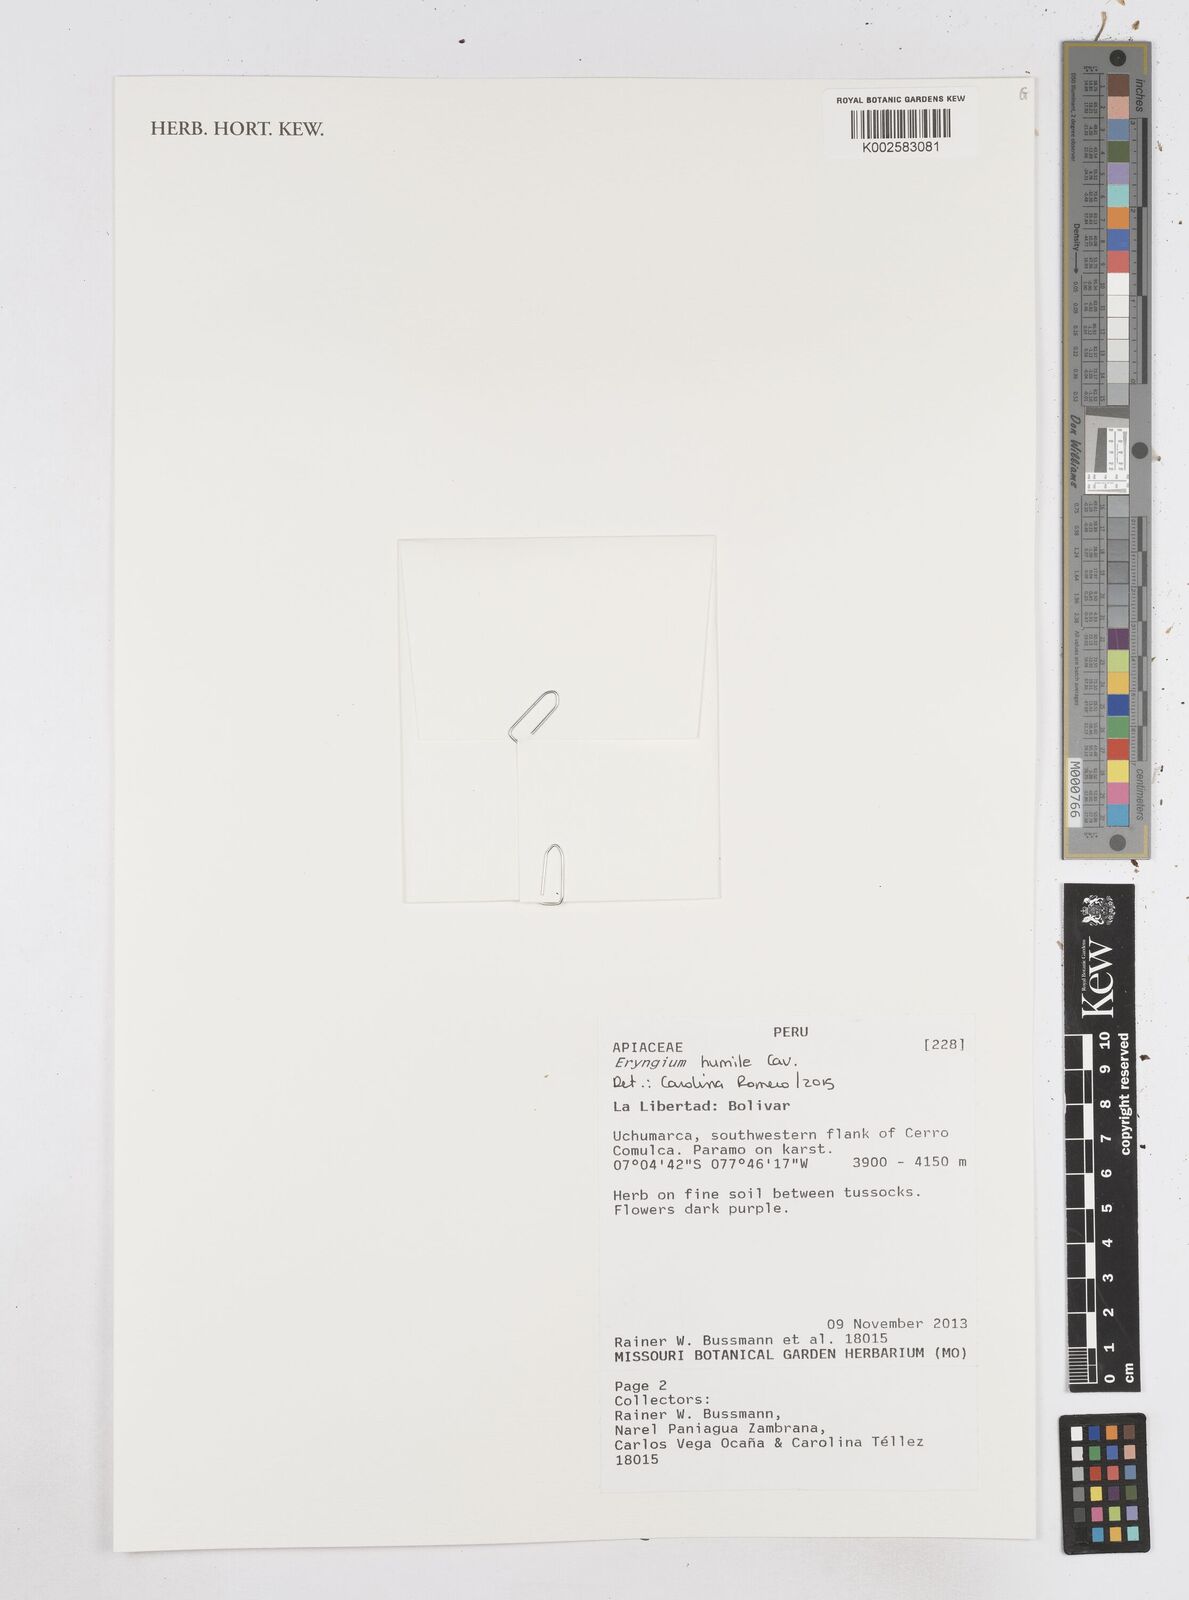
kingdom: Plantae
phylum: Tracheophyta
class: Magnoliopsida
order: Apiales
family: Apiaceae
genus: Eryngium
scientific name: Eryngium humile
